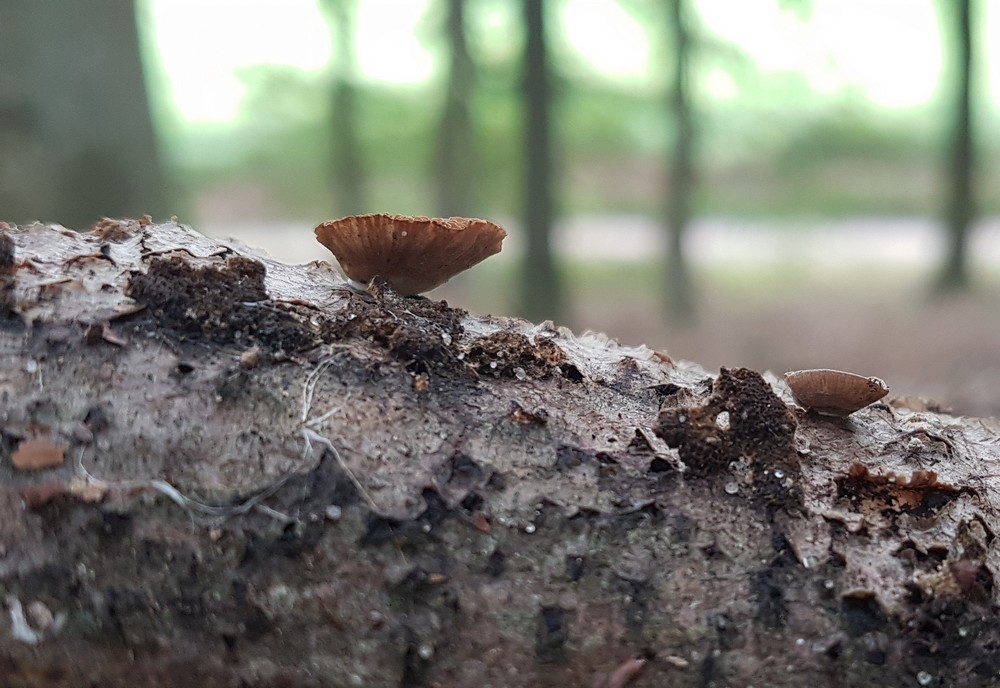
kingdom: Fungi
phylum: Basidiomycota
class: Agaricomycetes
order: Agaricales
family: Crepidotaceae
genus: Simocybe
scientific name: Simocybe haustellaris
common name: skæv skyggehat
